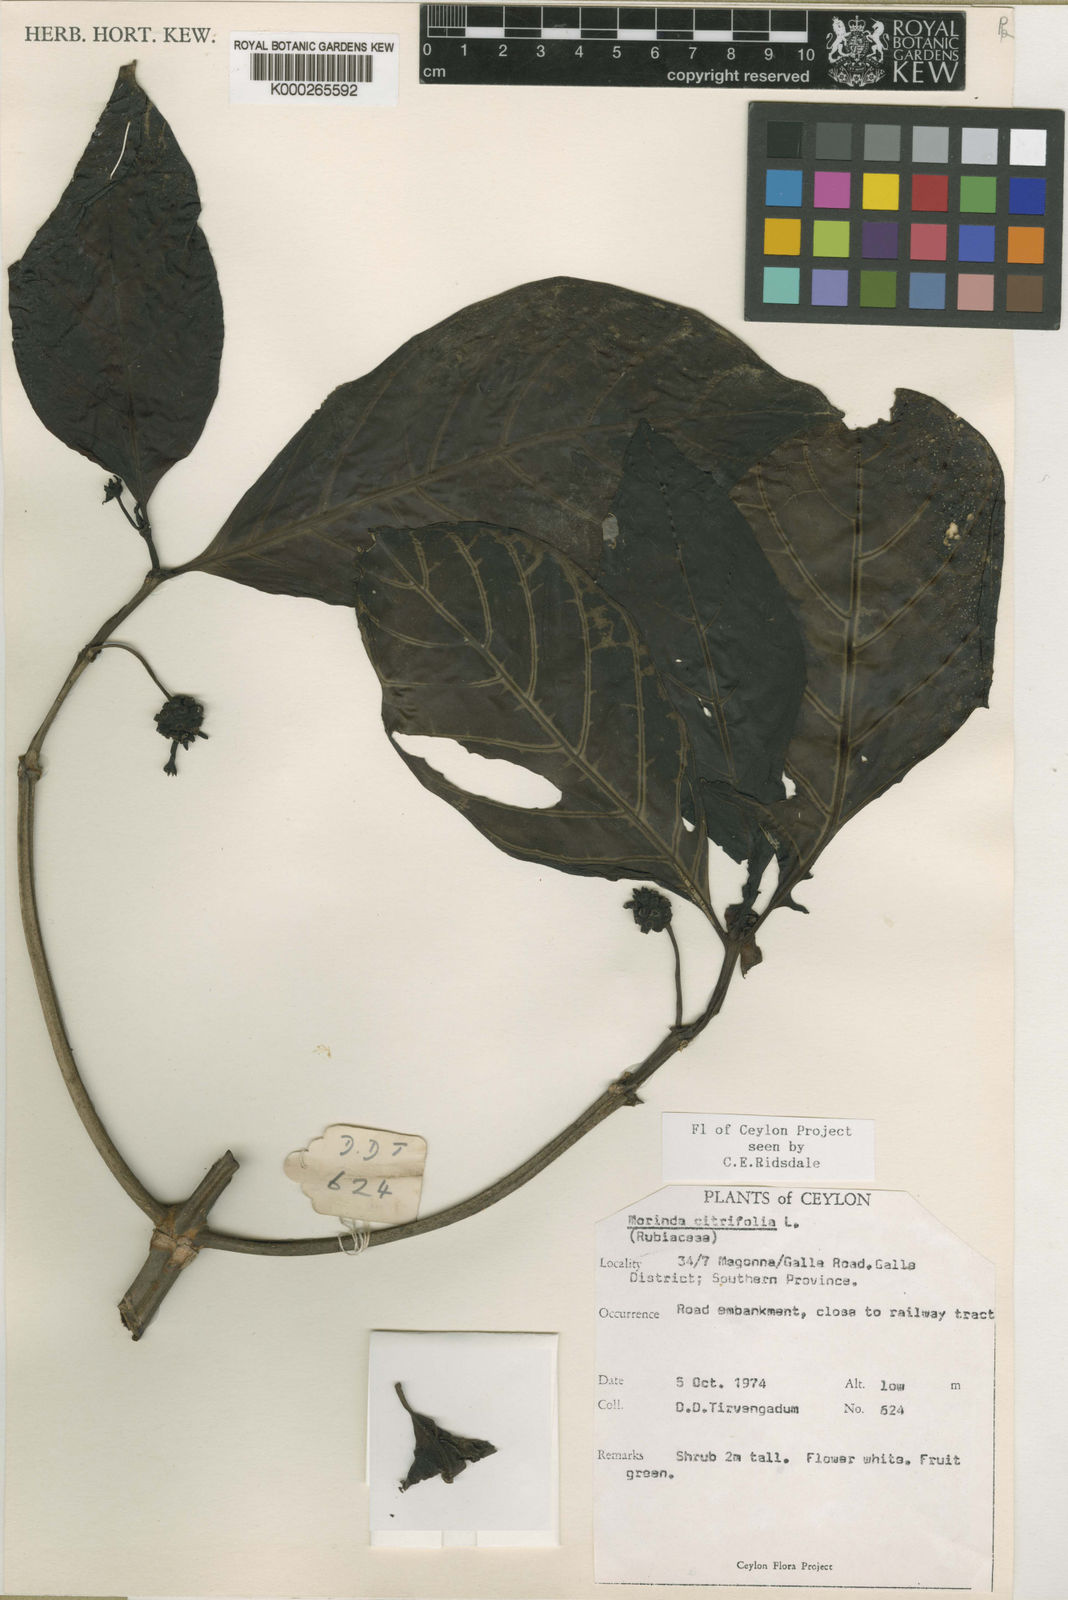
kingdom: Plantae
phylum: Tracheophyta
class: Magnoliopsida
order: Gentianales
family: Rubiaceae
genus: Morinda
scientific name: Morinda citrifolia
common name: Indian-mulberry
